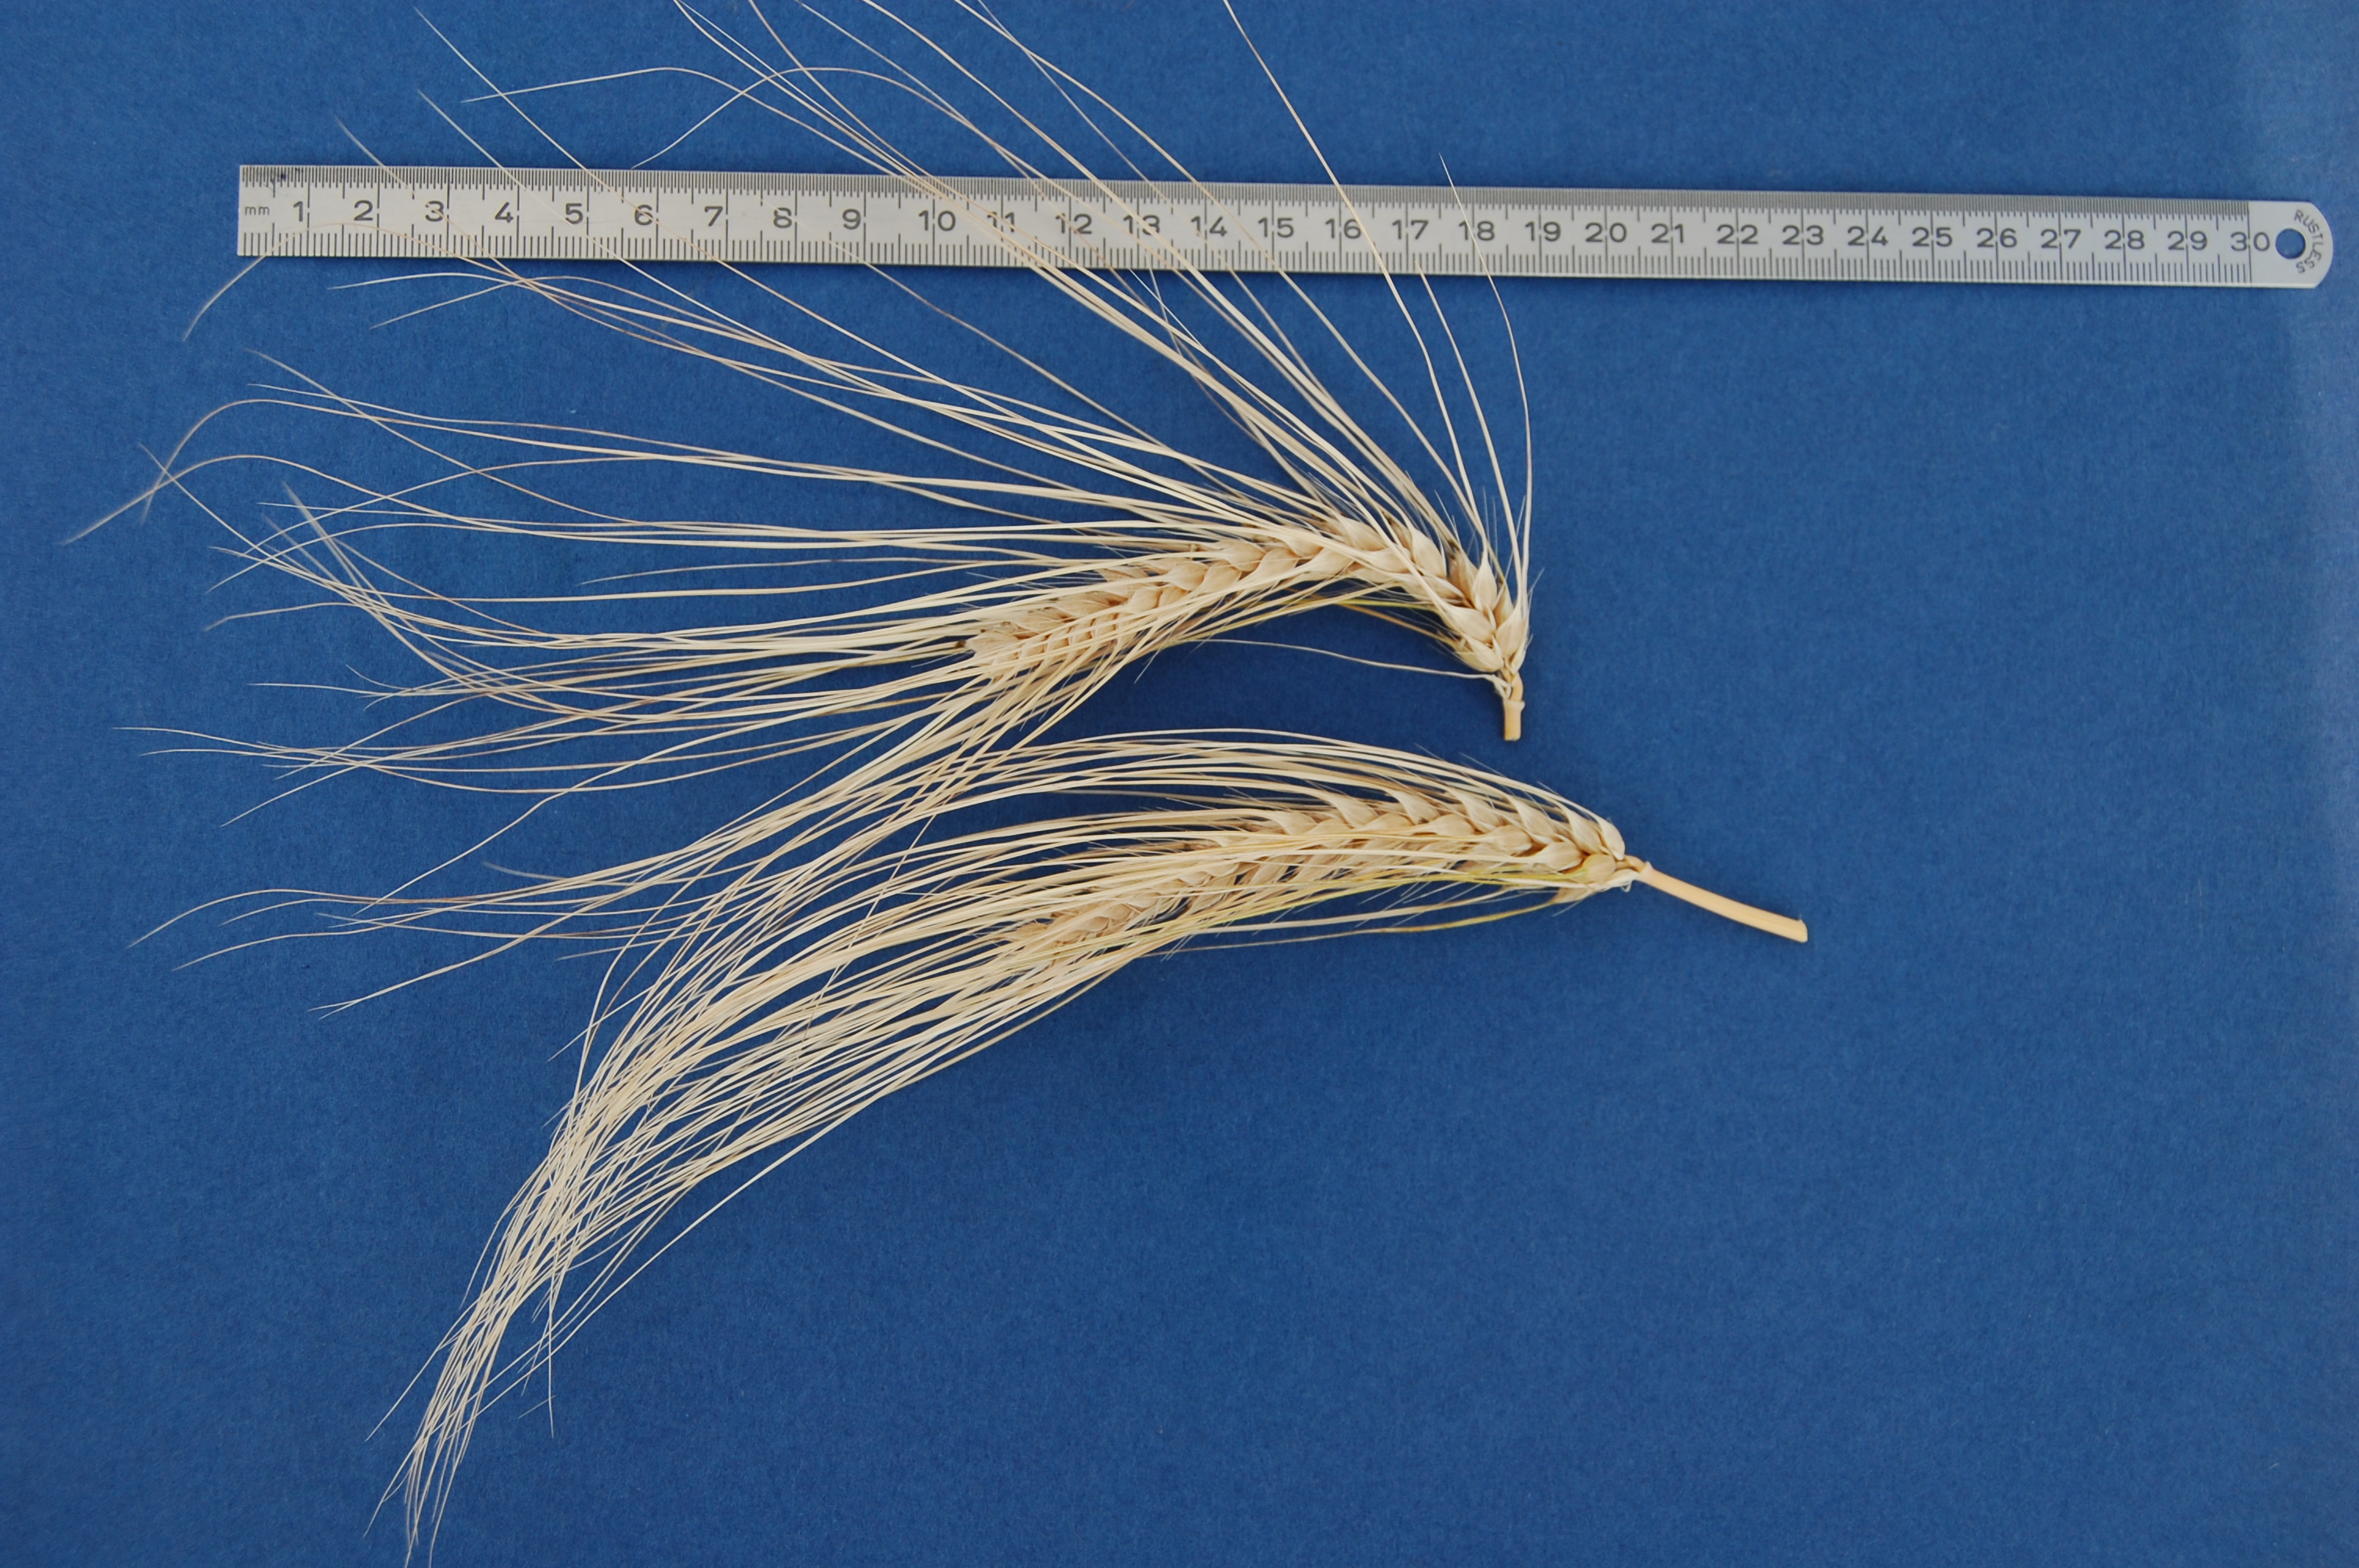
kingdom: Plantae
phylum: Tracheophyta
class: Liliopsida
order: Poales
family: Poaceae
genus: Hordeum
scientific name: Hordeum vulgare
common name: Common barley
